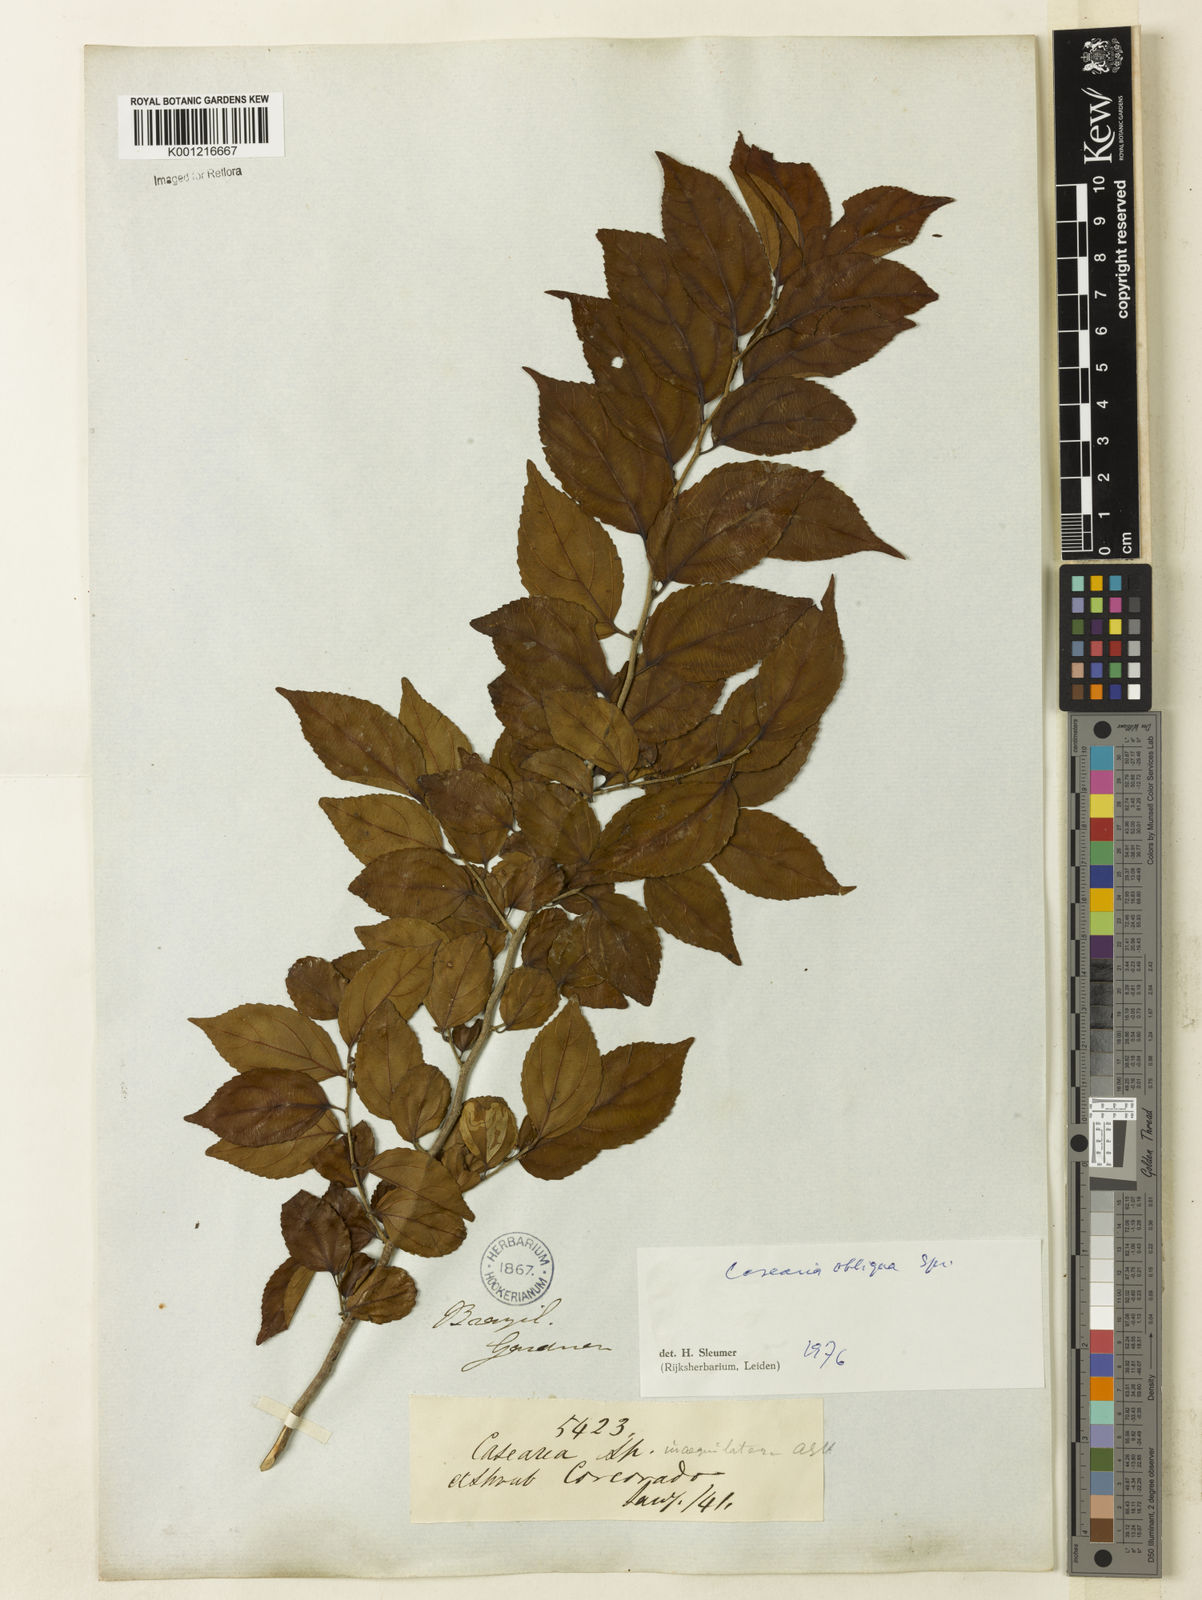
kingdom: Plantae
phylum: Tracheophyta
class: Magnoliopsida
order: Malpighiales
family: Salicaceae
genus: Casearia
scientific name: Casearia obliqua
